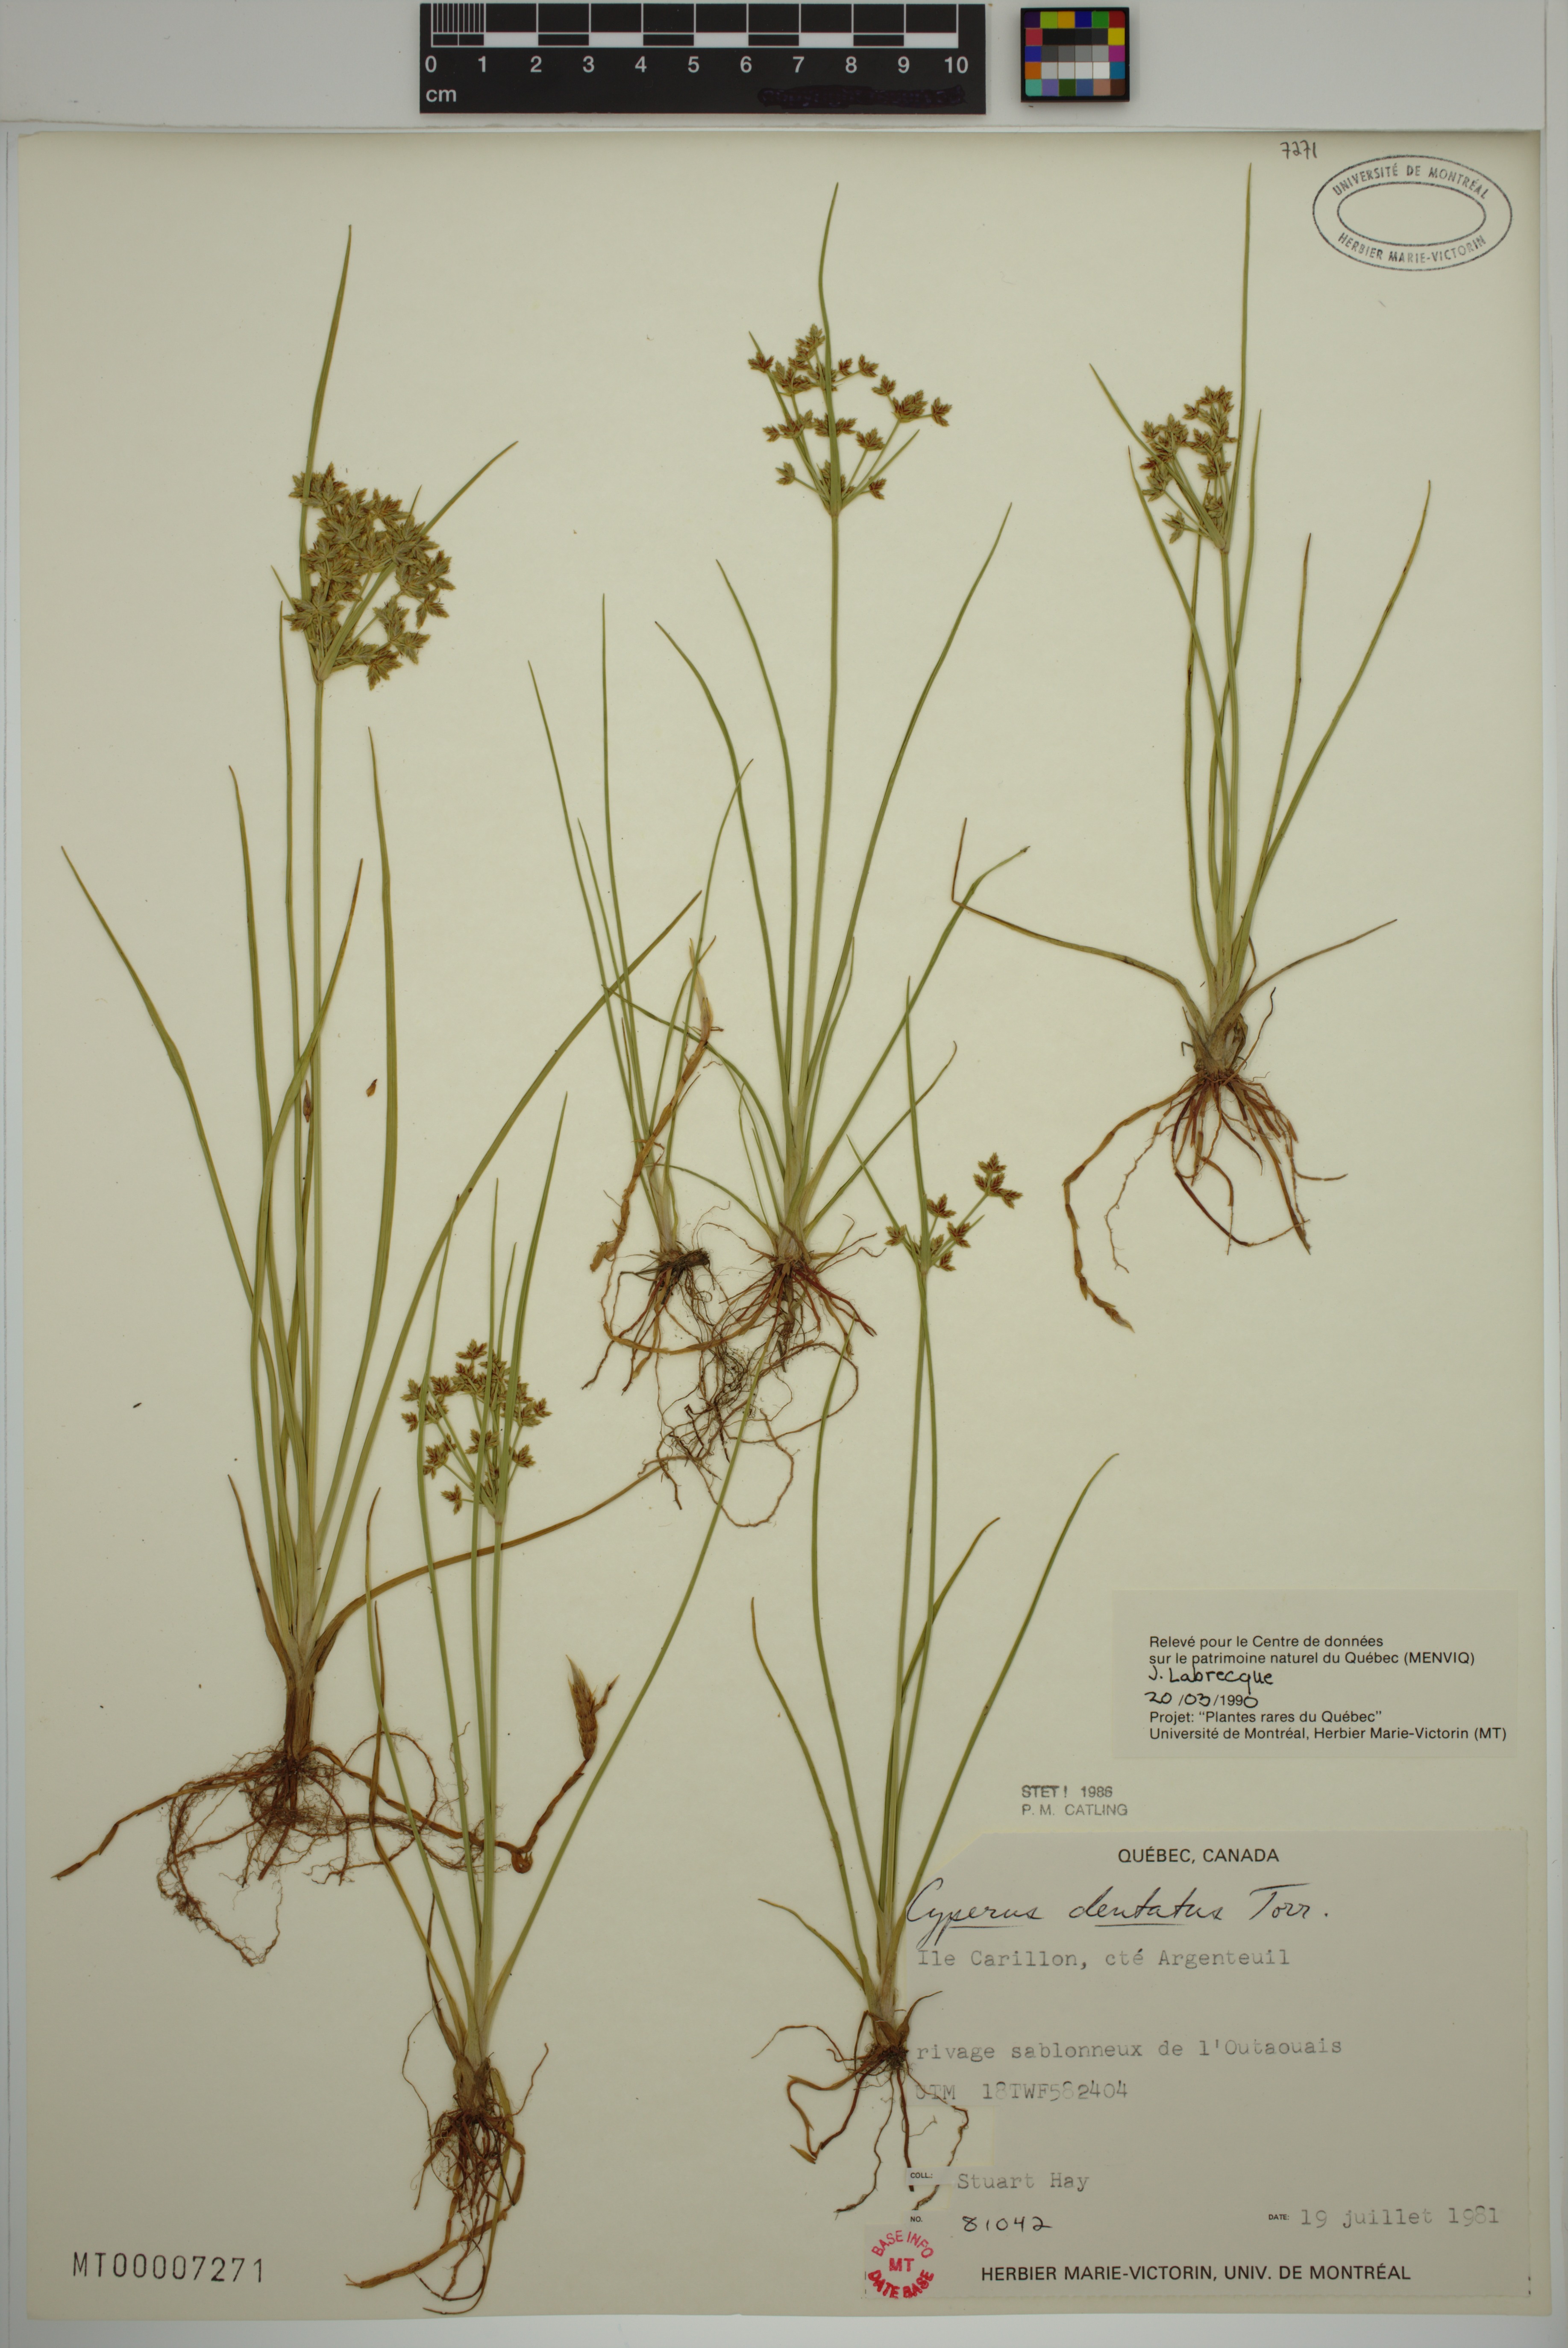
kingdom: Plantae
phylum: Tracheophyta
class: Liliopsida
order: Poales
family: Cyperaceae
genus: Cyperus
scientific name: Cyperus dentatus
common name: Dentate umbrella sedge
